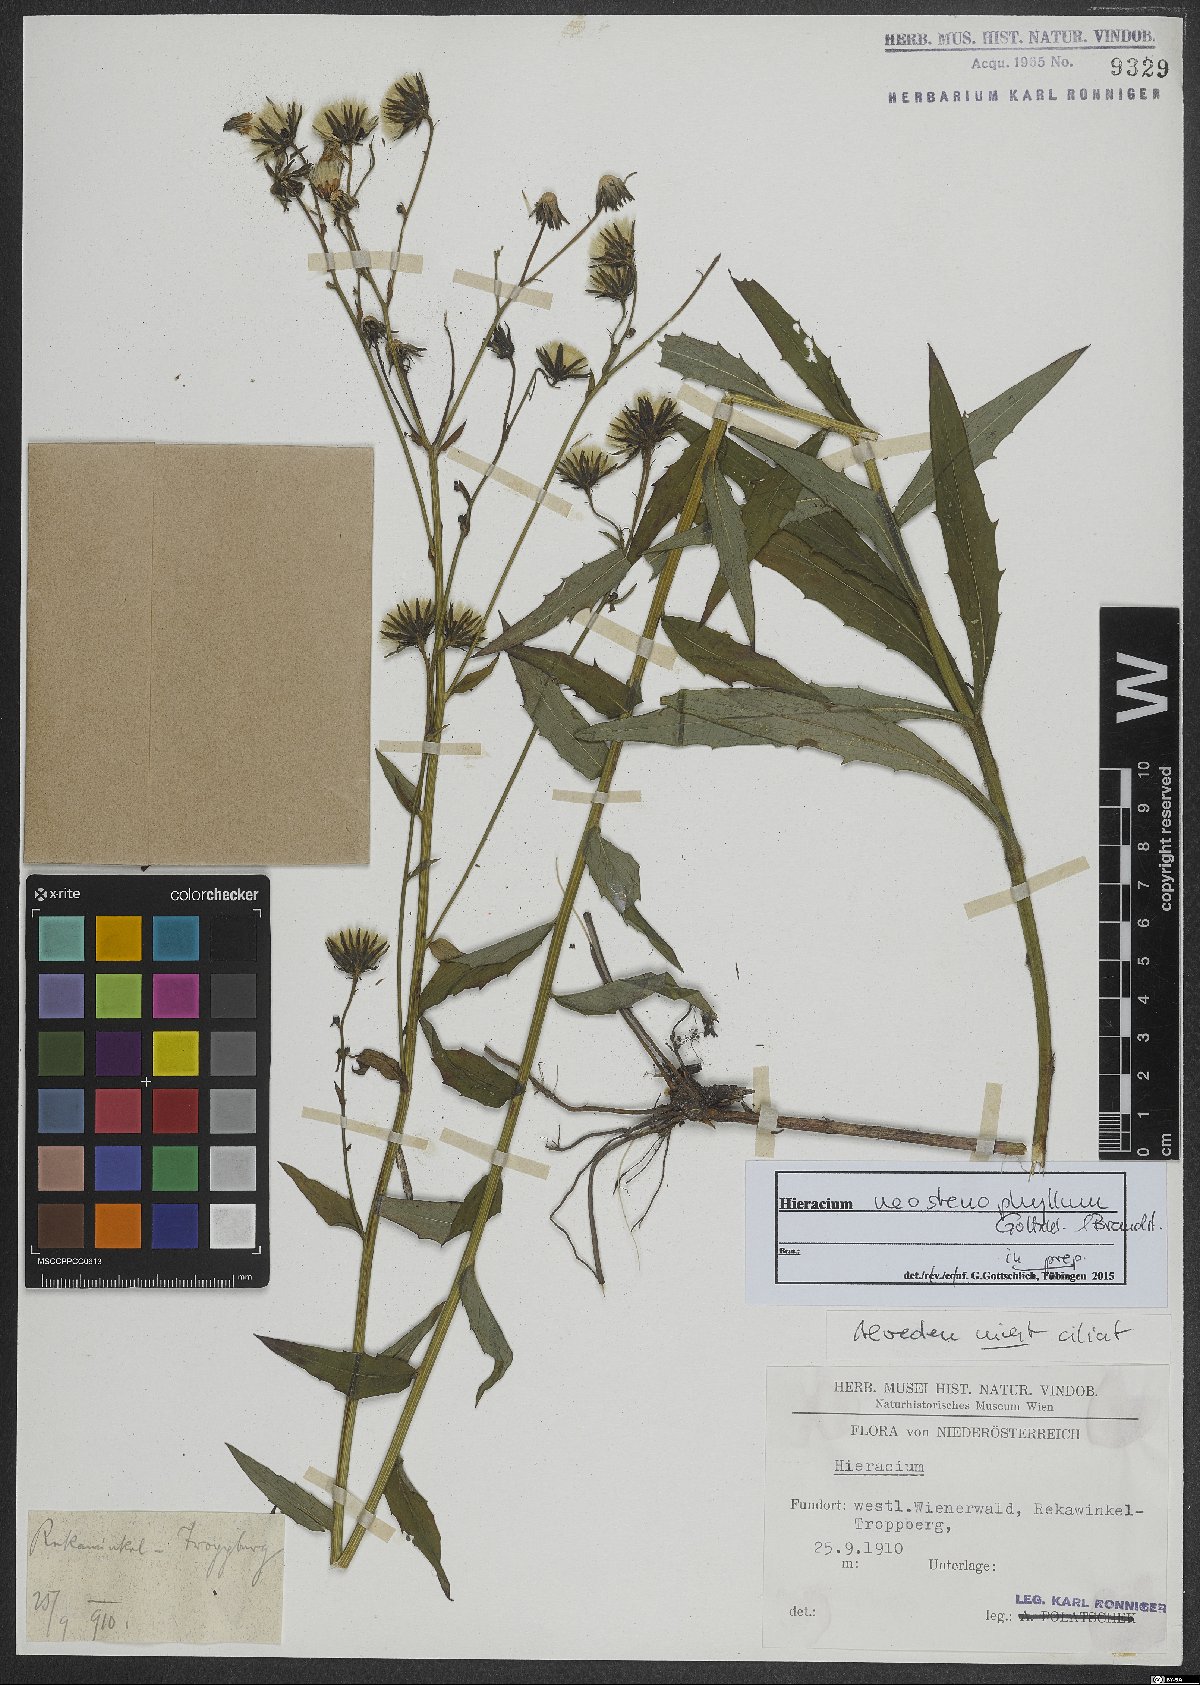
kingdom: Plantae
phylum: Tracheophyta
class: Magnoliopsida
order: Asterales
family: Asteraceae
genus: Hieracium
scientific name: Hieracium neostenophyllum
